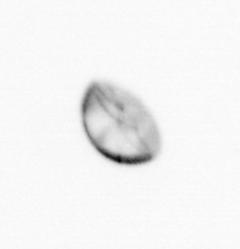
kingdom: Chromista
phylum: Ochrophyta
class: Bacillariophyceae
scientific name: Bacillariophyceae
